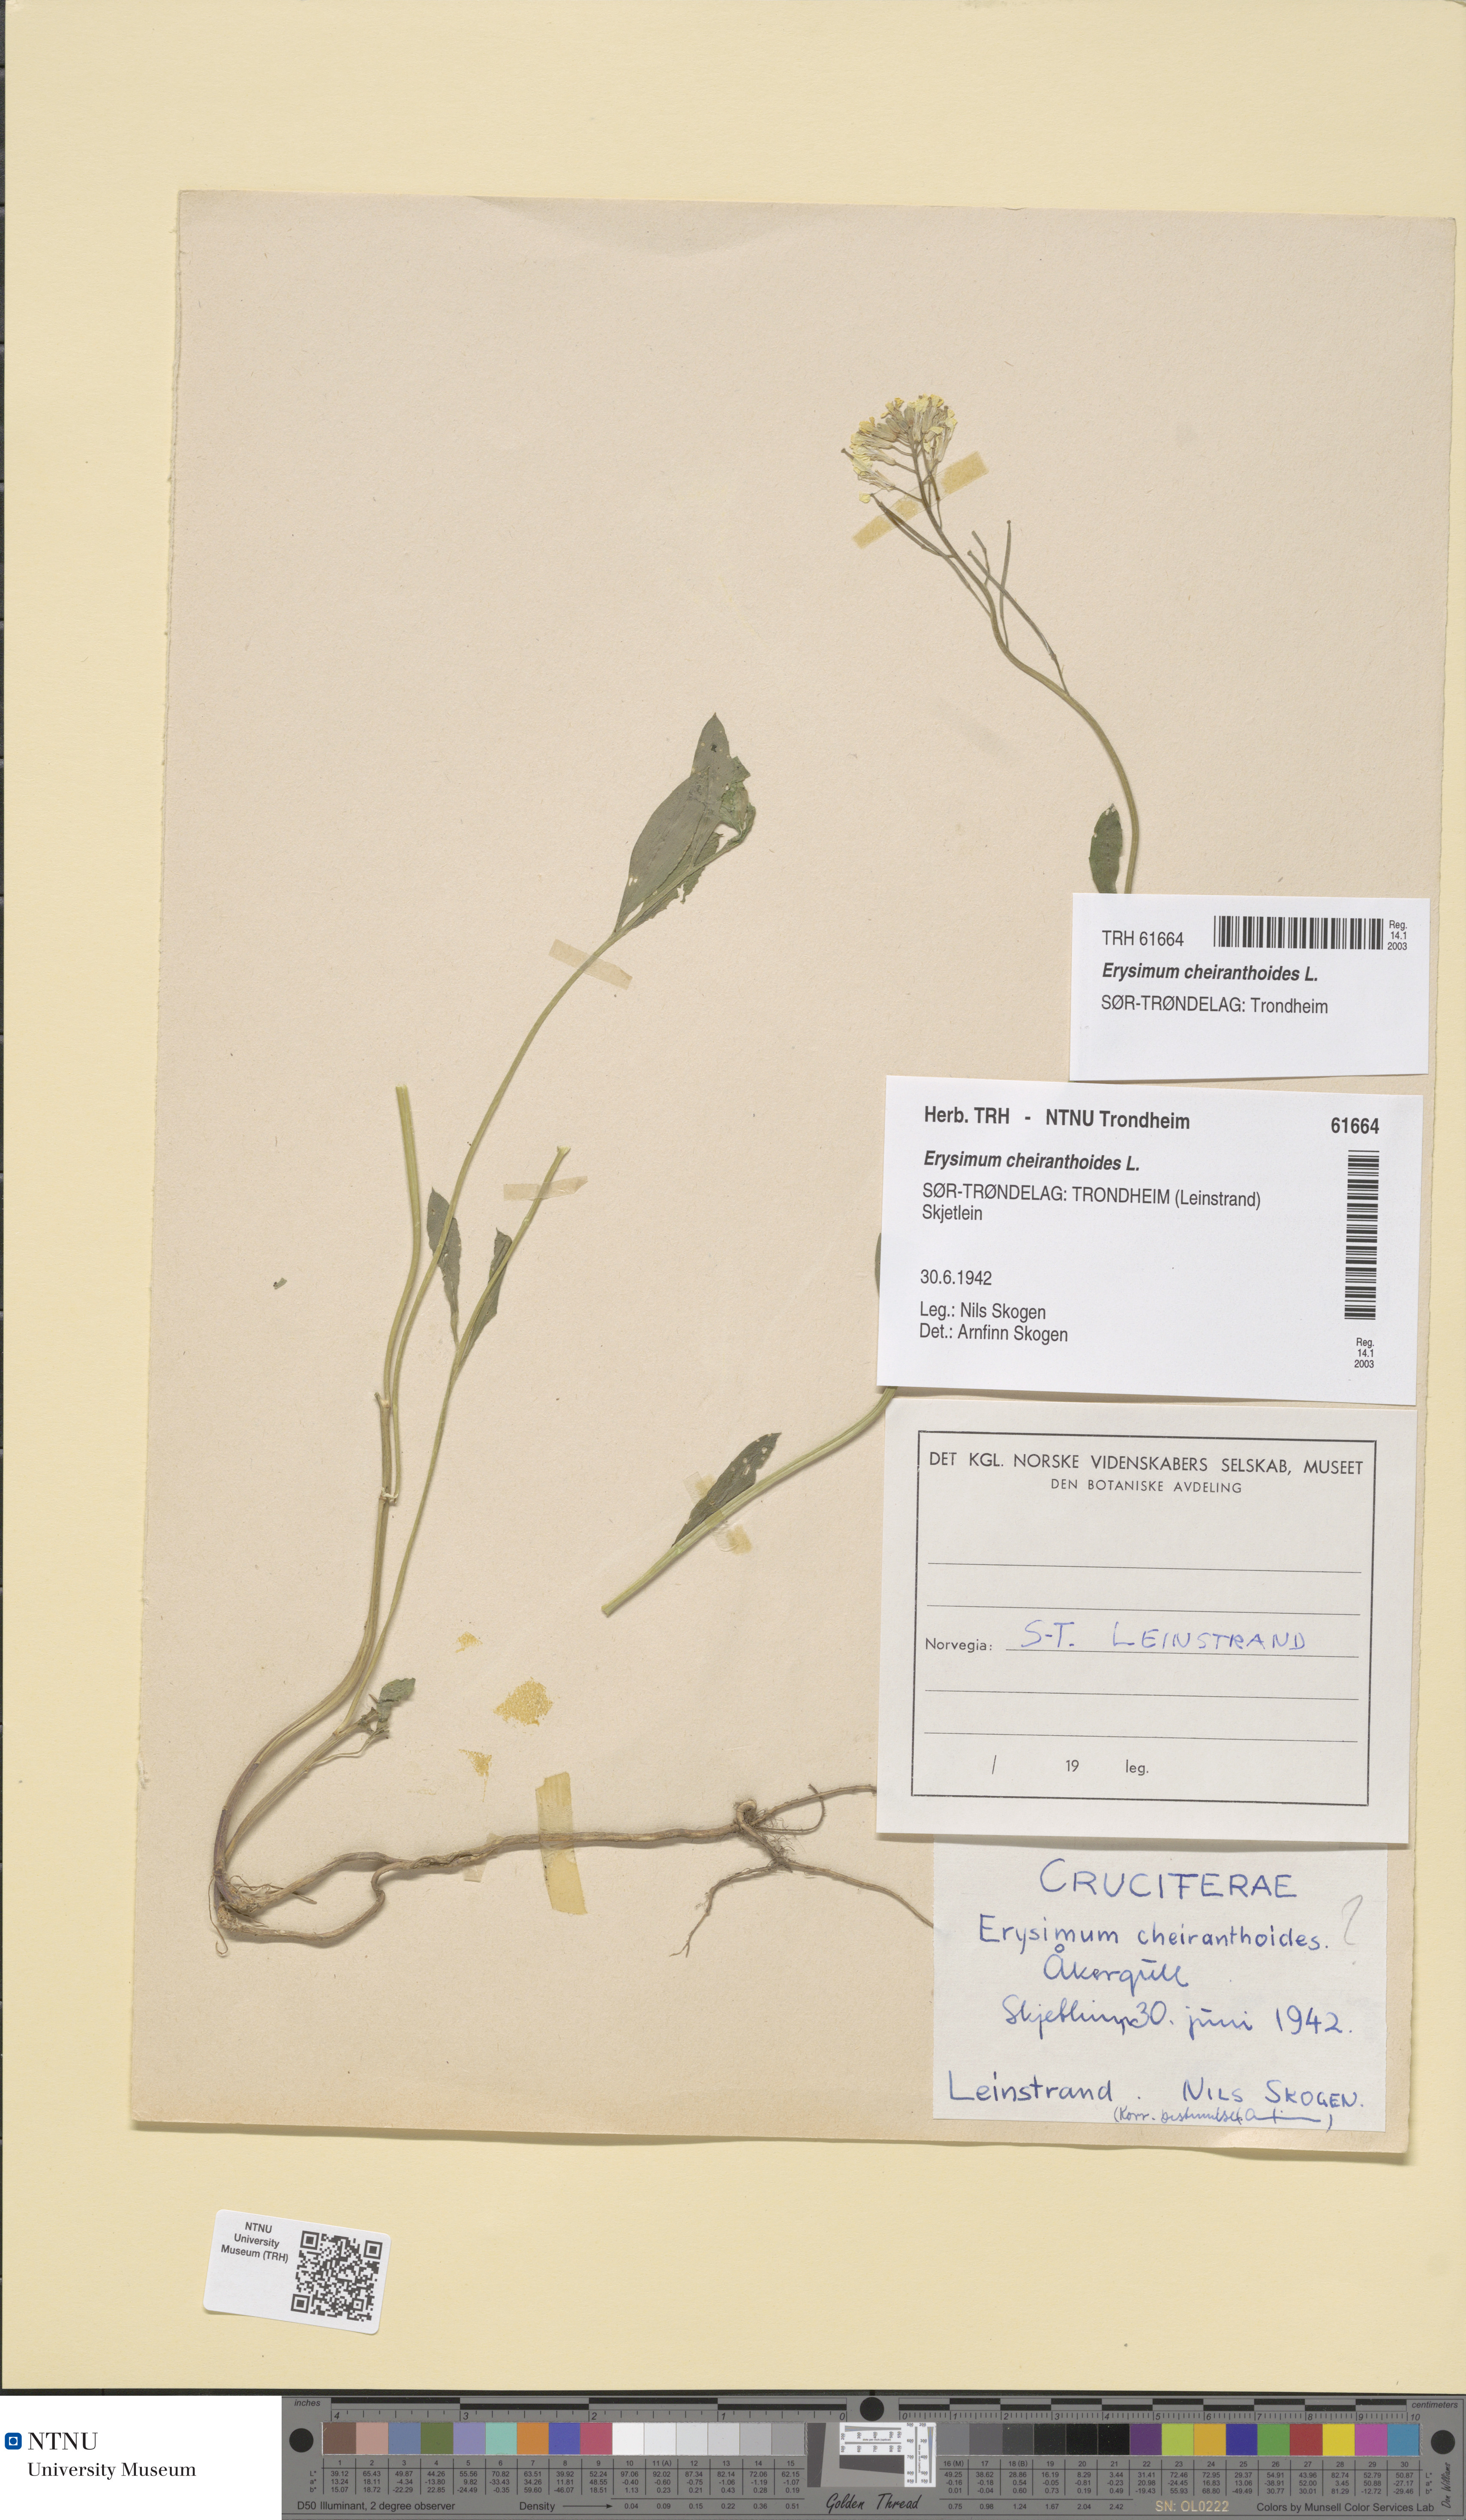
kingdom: Plantae
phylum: Tracheophyta
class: Magnoliopsida
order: Brassicales
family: Brassicaceae
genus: Erysimum
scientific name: Erysimum cheiranthoides
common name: Treacle mustard
